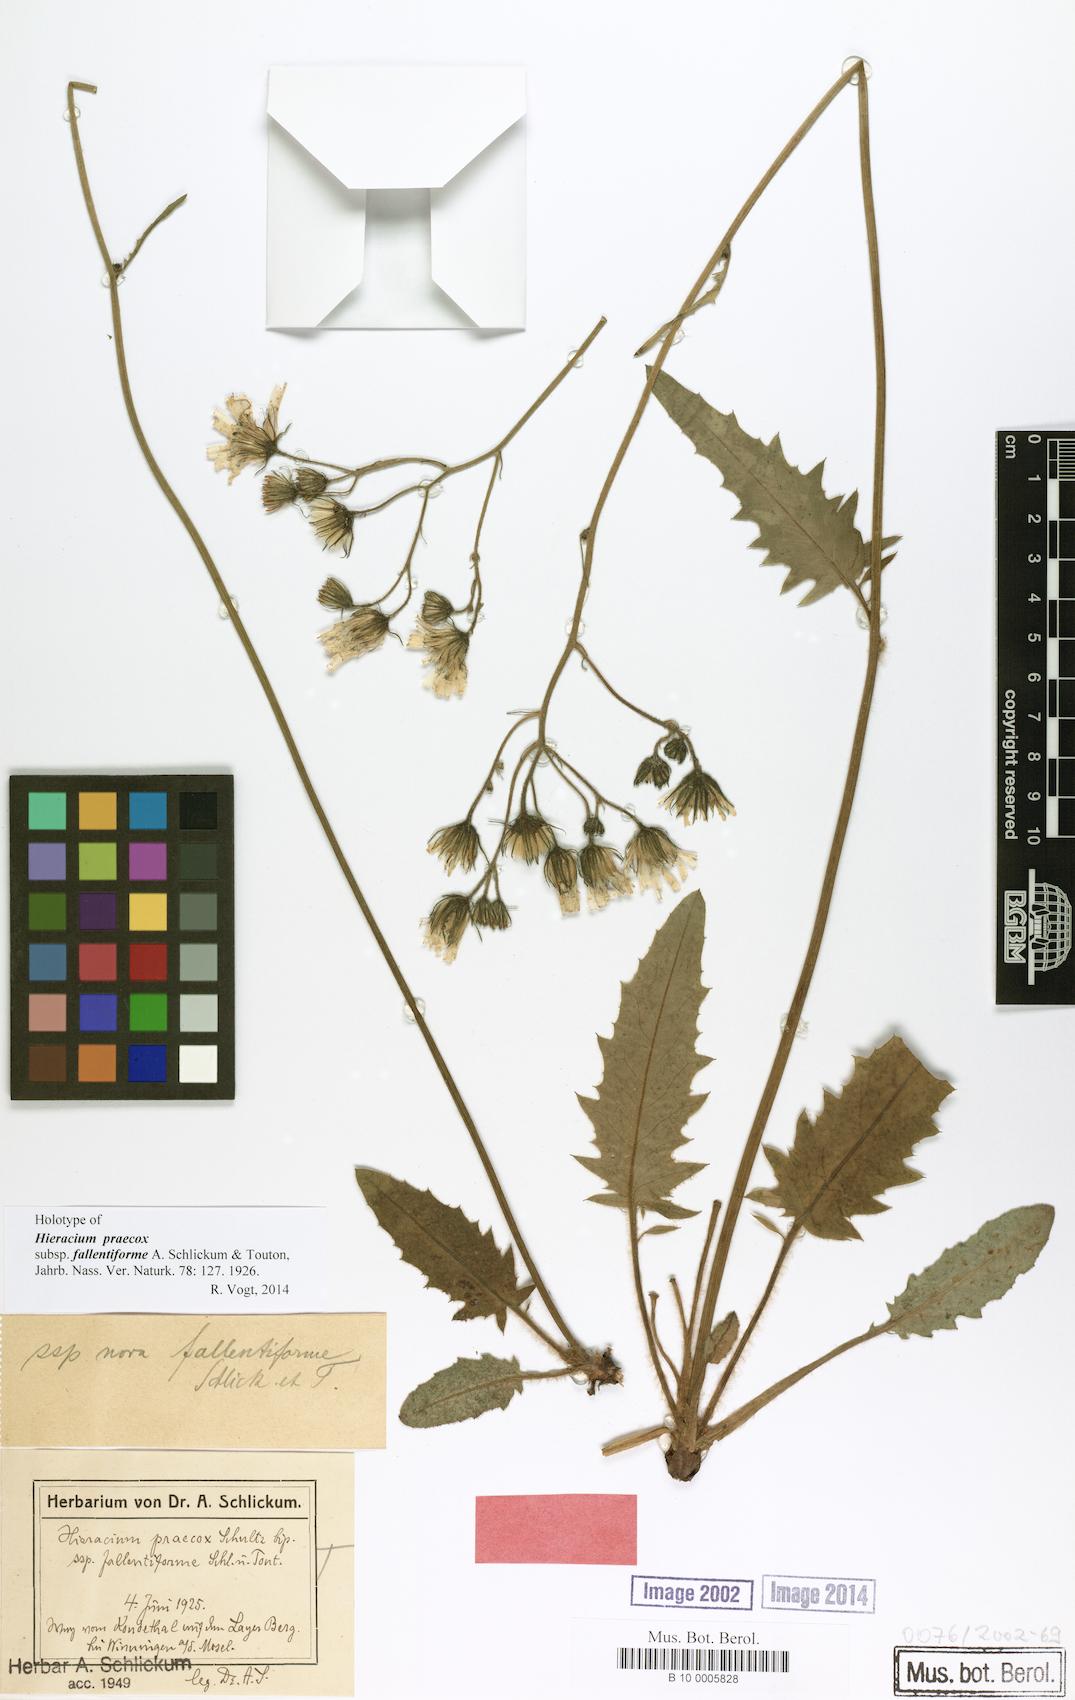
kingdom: Plantae
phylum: Tracheophyta
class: Magnoliopsida
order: Asterales
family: Asteraceae
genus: Hieracium
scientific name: Hieracium glaucinum
